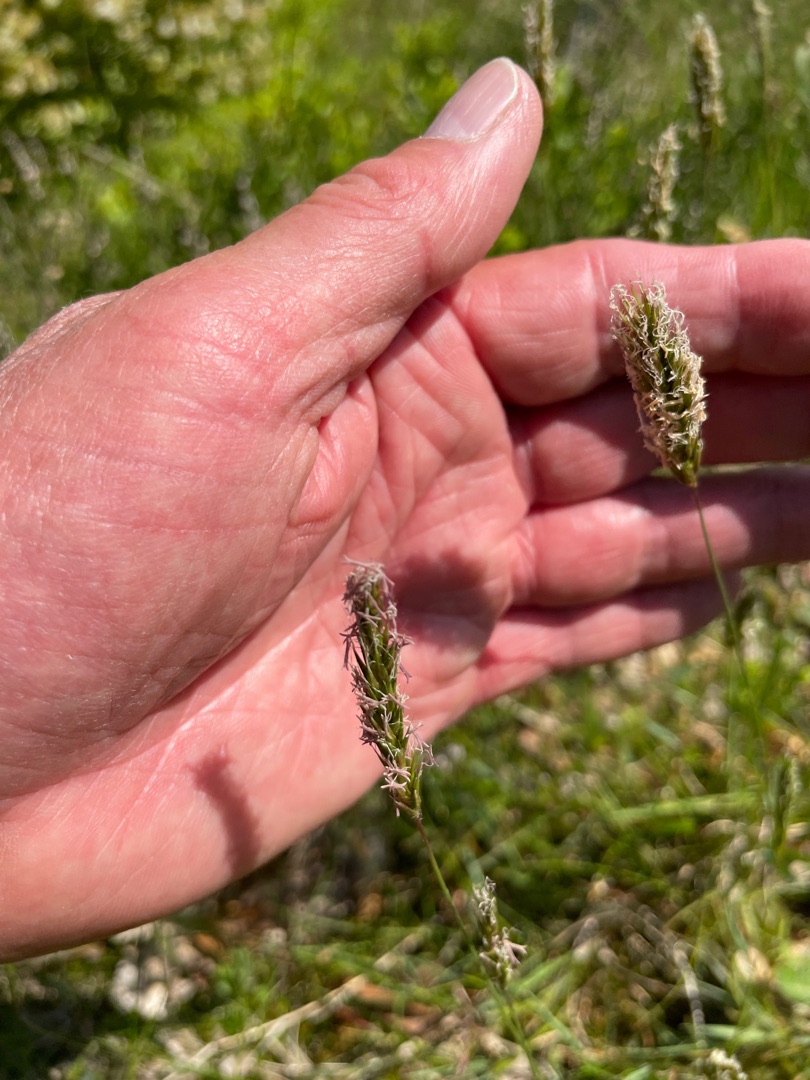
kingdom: Plantae
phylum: Tracheophyta
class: Liliopsida
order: Poales
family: Poaceae
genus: Anthoxanthum
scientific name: Anthoxanthum odoratum
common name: Vellugtende gulaks
